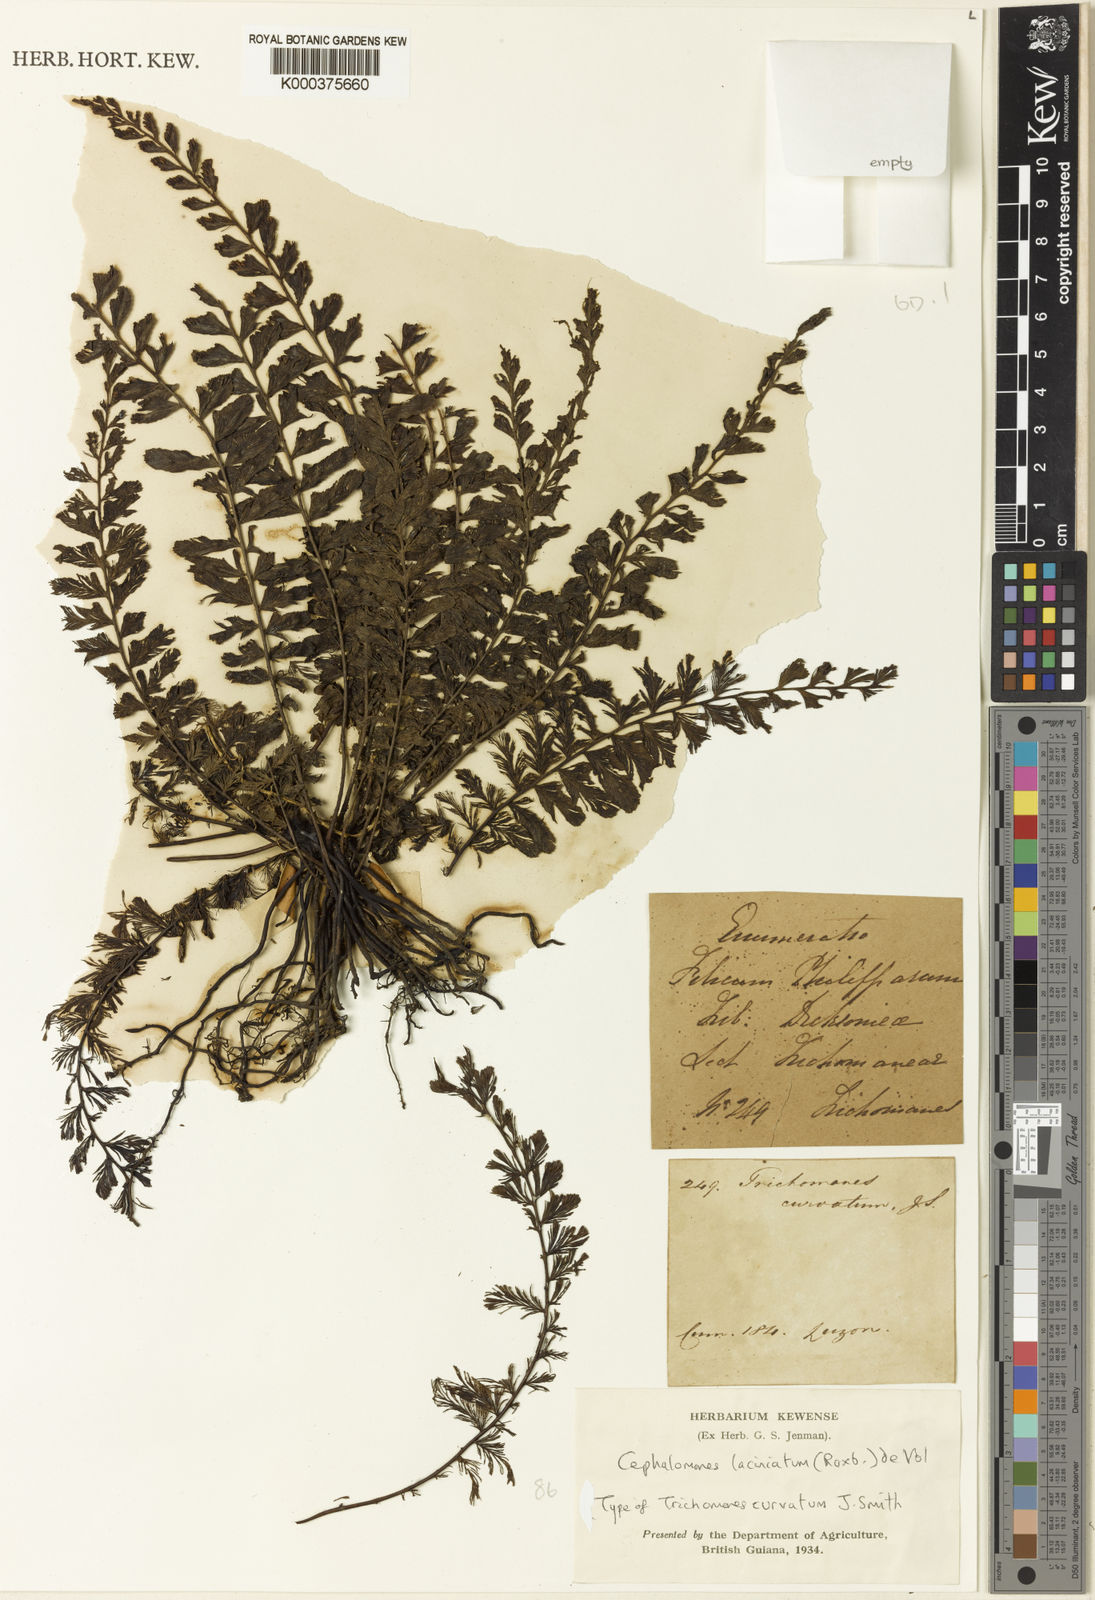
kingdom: Plantae
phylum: Tracheophyta
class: Polypodiopsida
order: Hymenophyllales
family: Hymenophyllaceae
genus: Trichomanes
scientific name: Trichomanes
